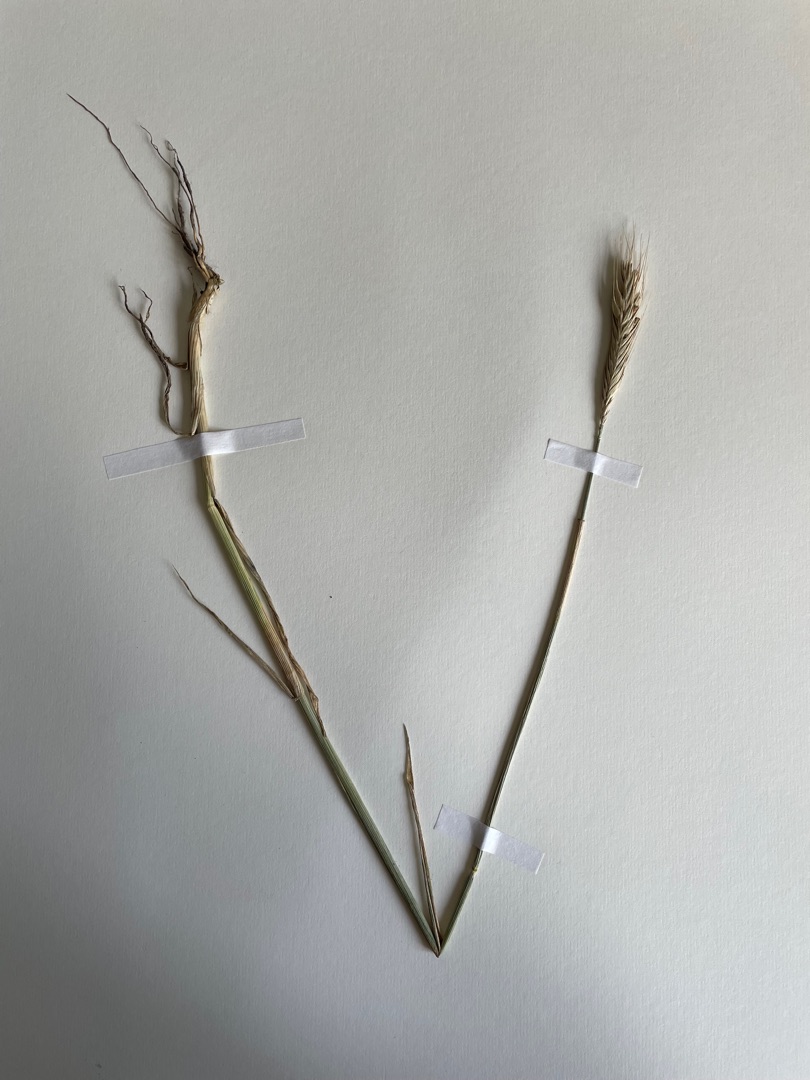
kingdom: Plantae
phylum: Tracheophyta
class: Liliopsida
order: Poales
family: Poaceae
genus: Secale
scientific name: Secale cereale
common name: Almindelig rug
